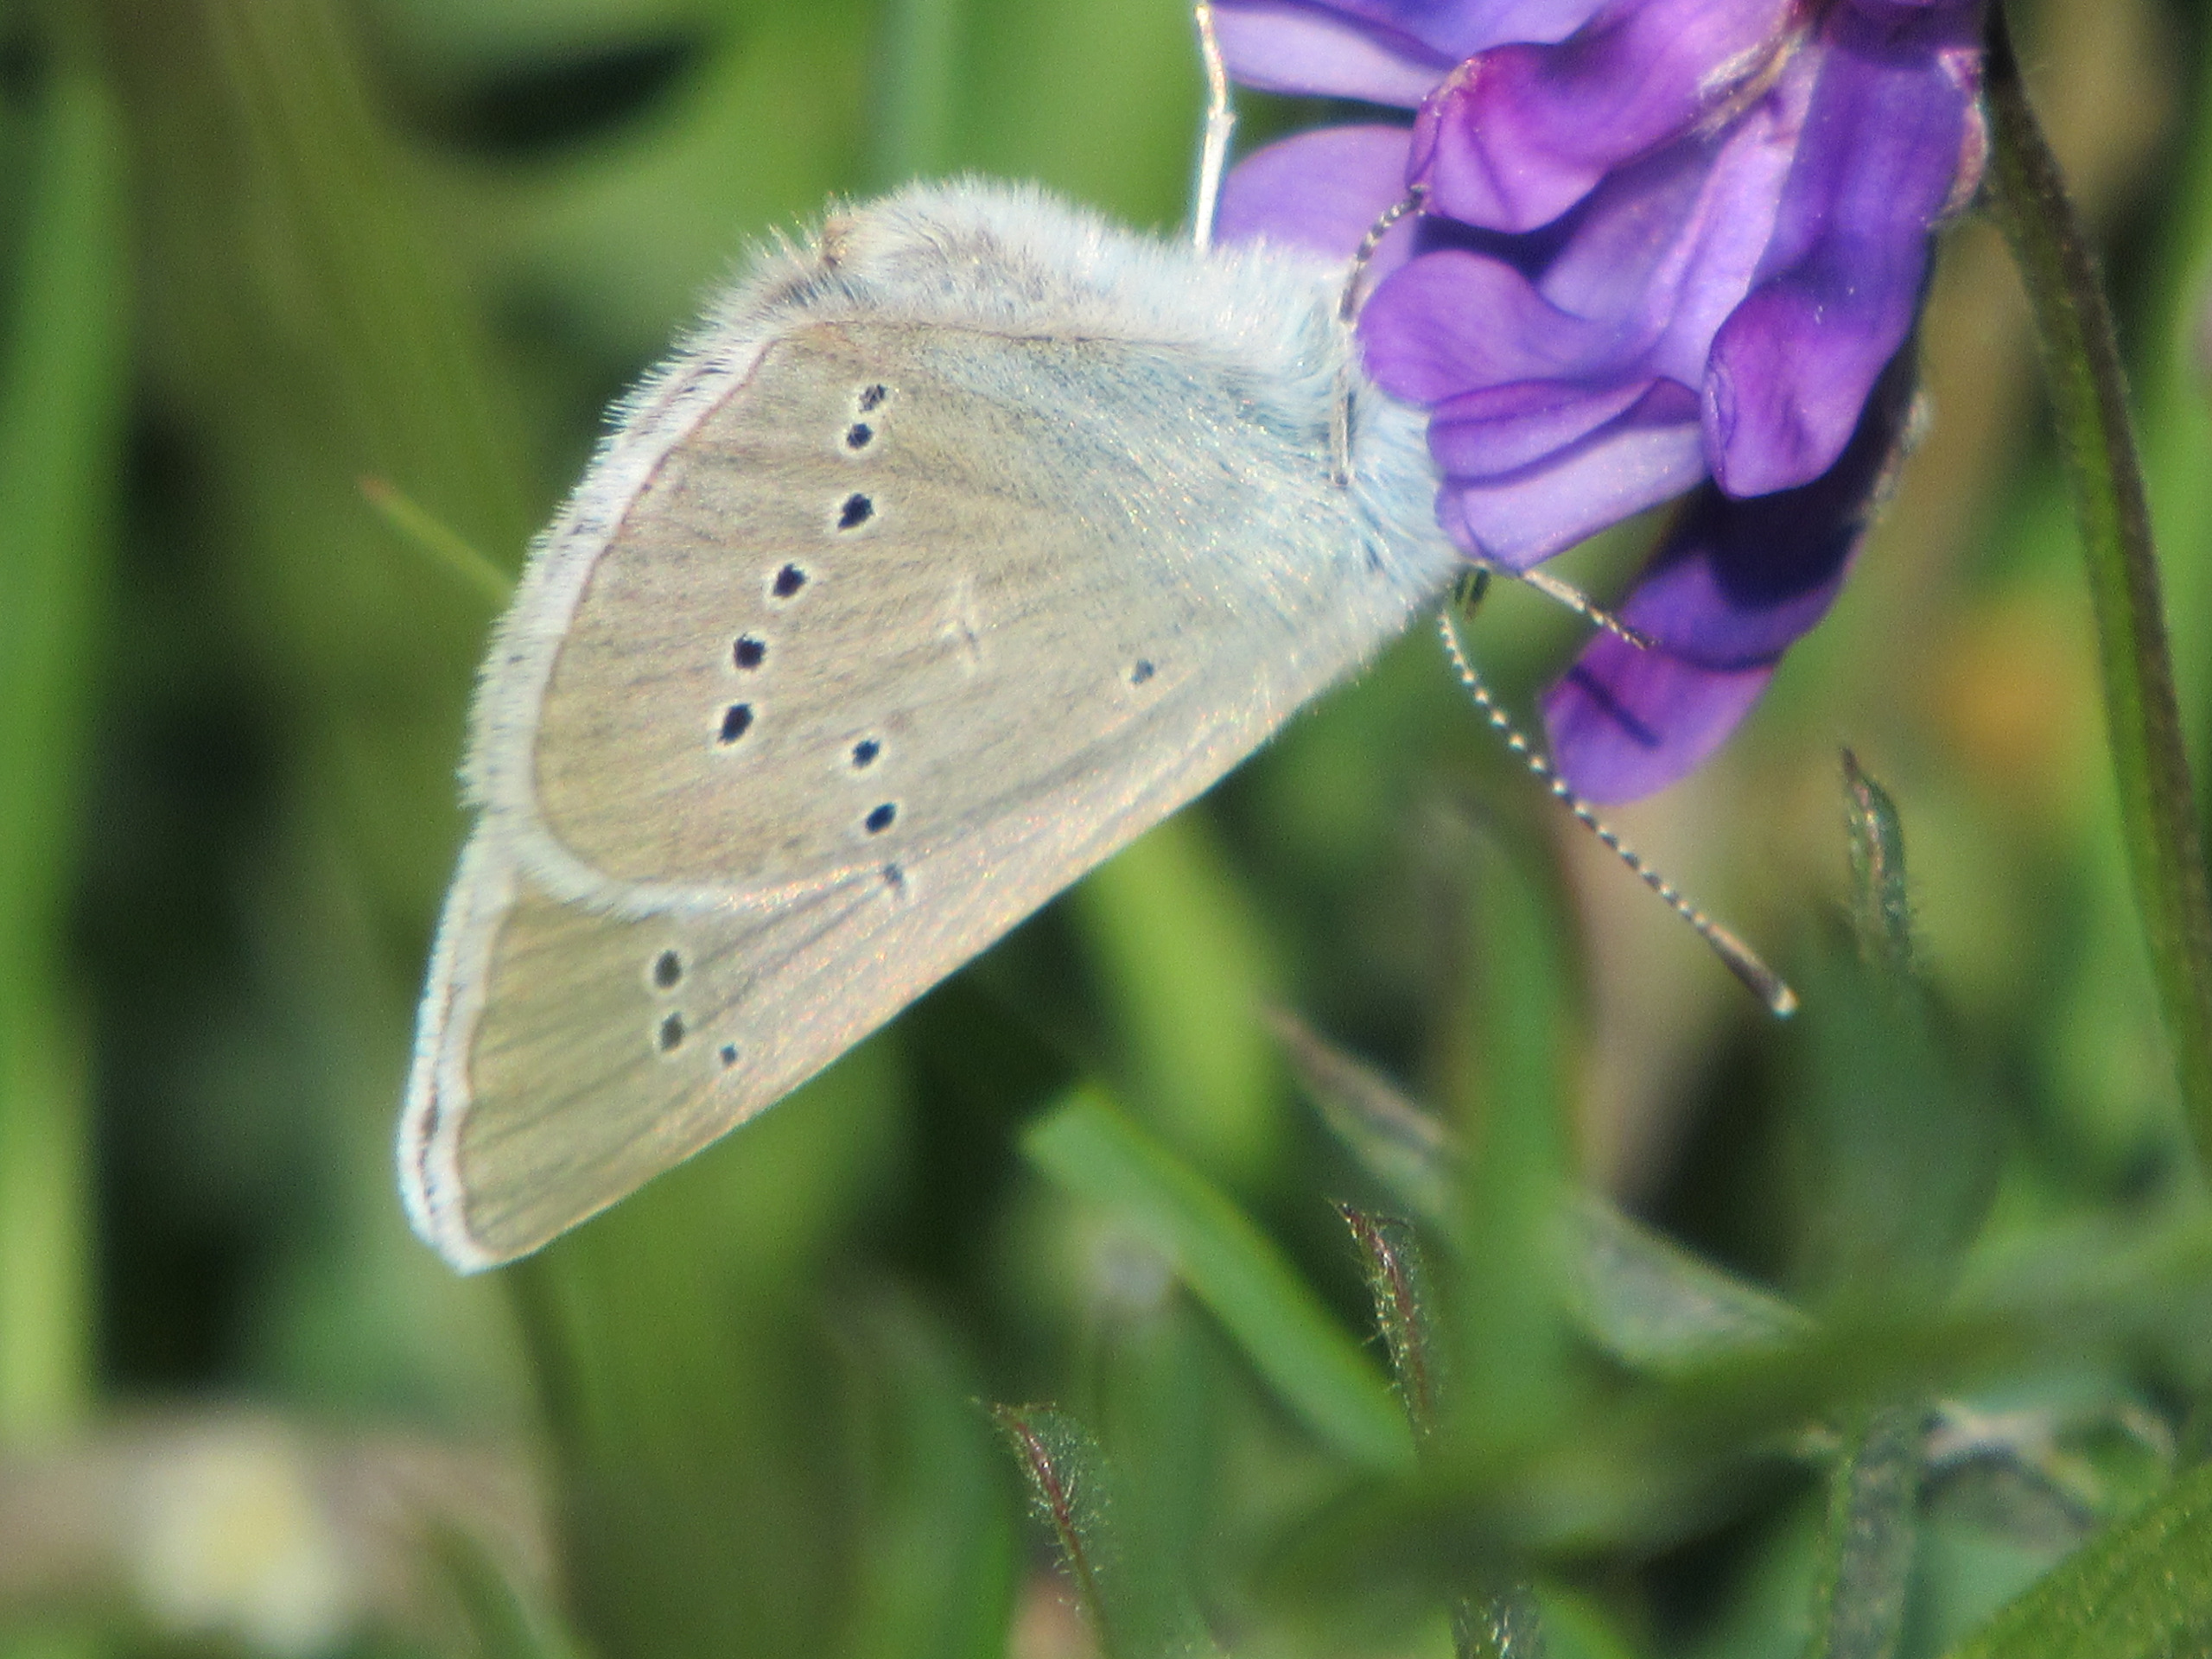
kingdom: Animalia
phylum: Arthropoda
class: Insecta
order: Lepidoptera
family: Lycaenidae
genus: Cyaniris
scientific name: Cyaniris semiargus
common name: Engblåfugl
